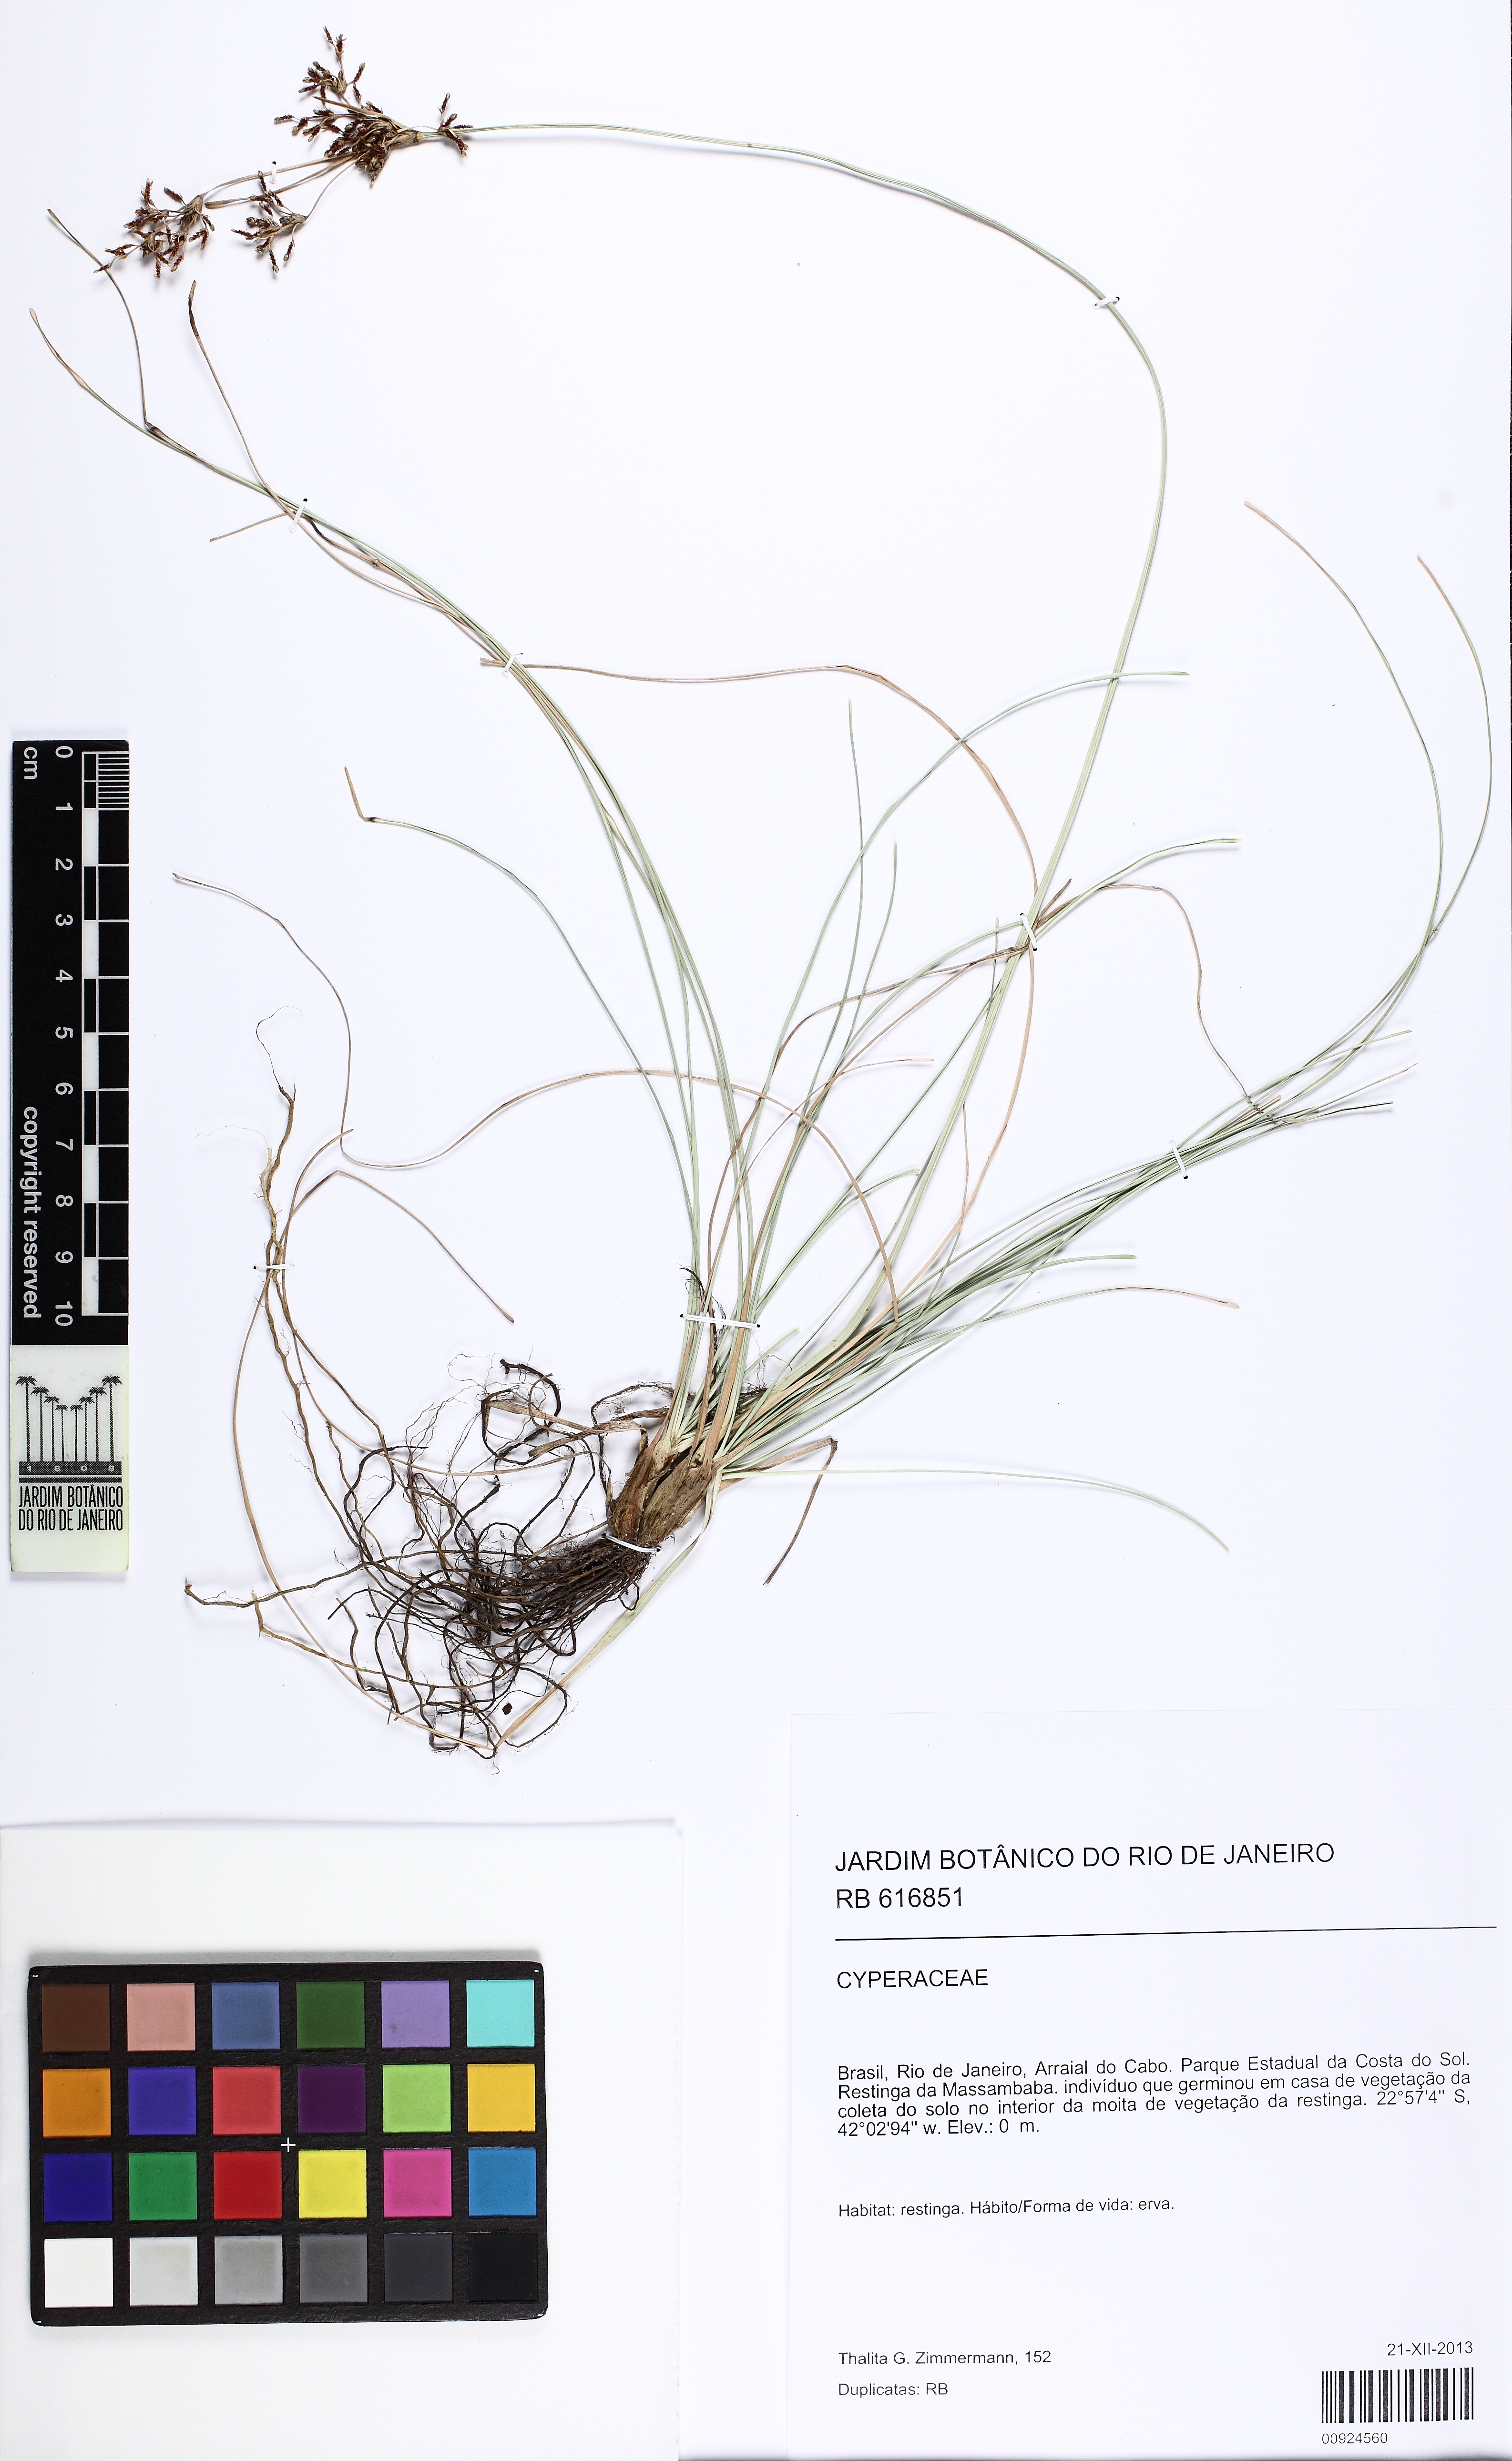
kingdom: Plantae
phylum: Tracheophyta
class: Liliopsida
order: Poales
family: Cyperaceae
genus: Fimbristylis
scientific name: Fimbristylis cymosa
